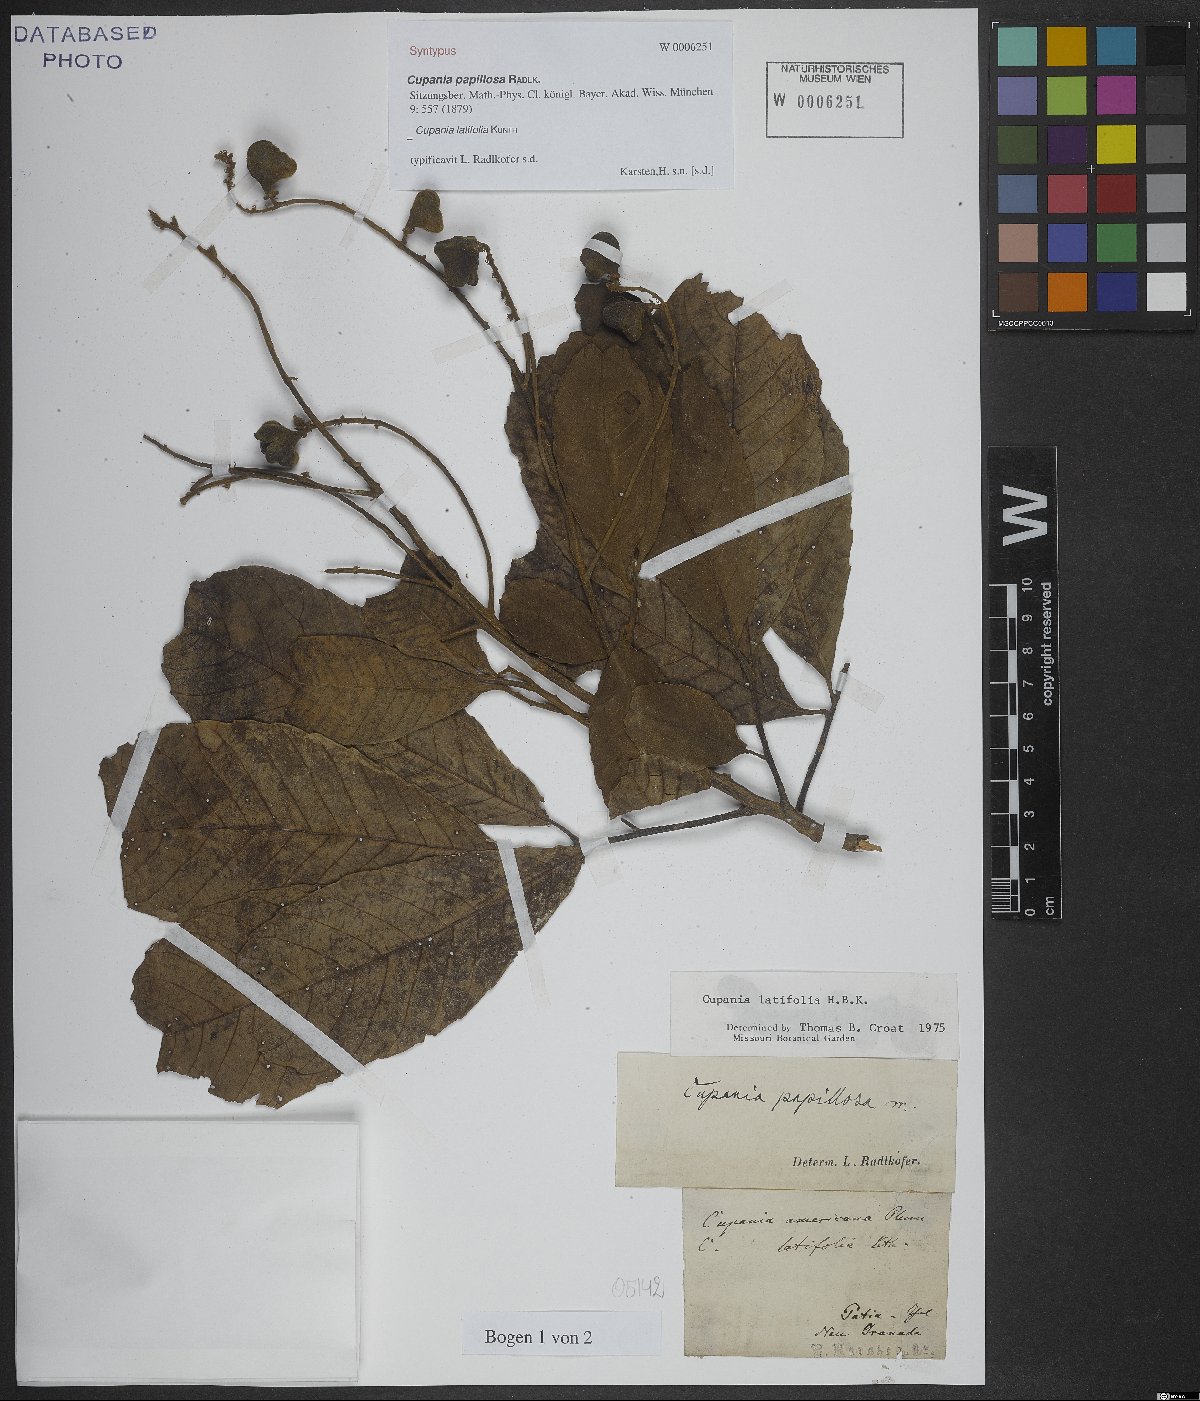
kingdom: Plantae
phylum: Tracheophyta
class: Magnoliopsida
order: Sapindales
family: Sapindaceae
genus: Cupania
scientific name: Cupania latifolia
